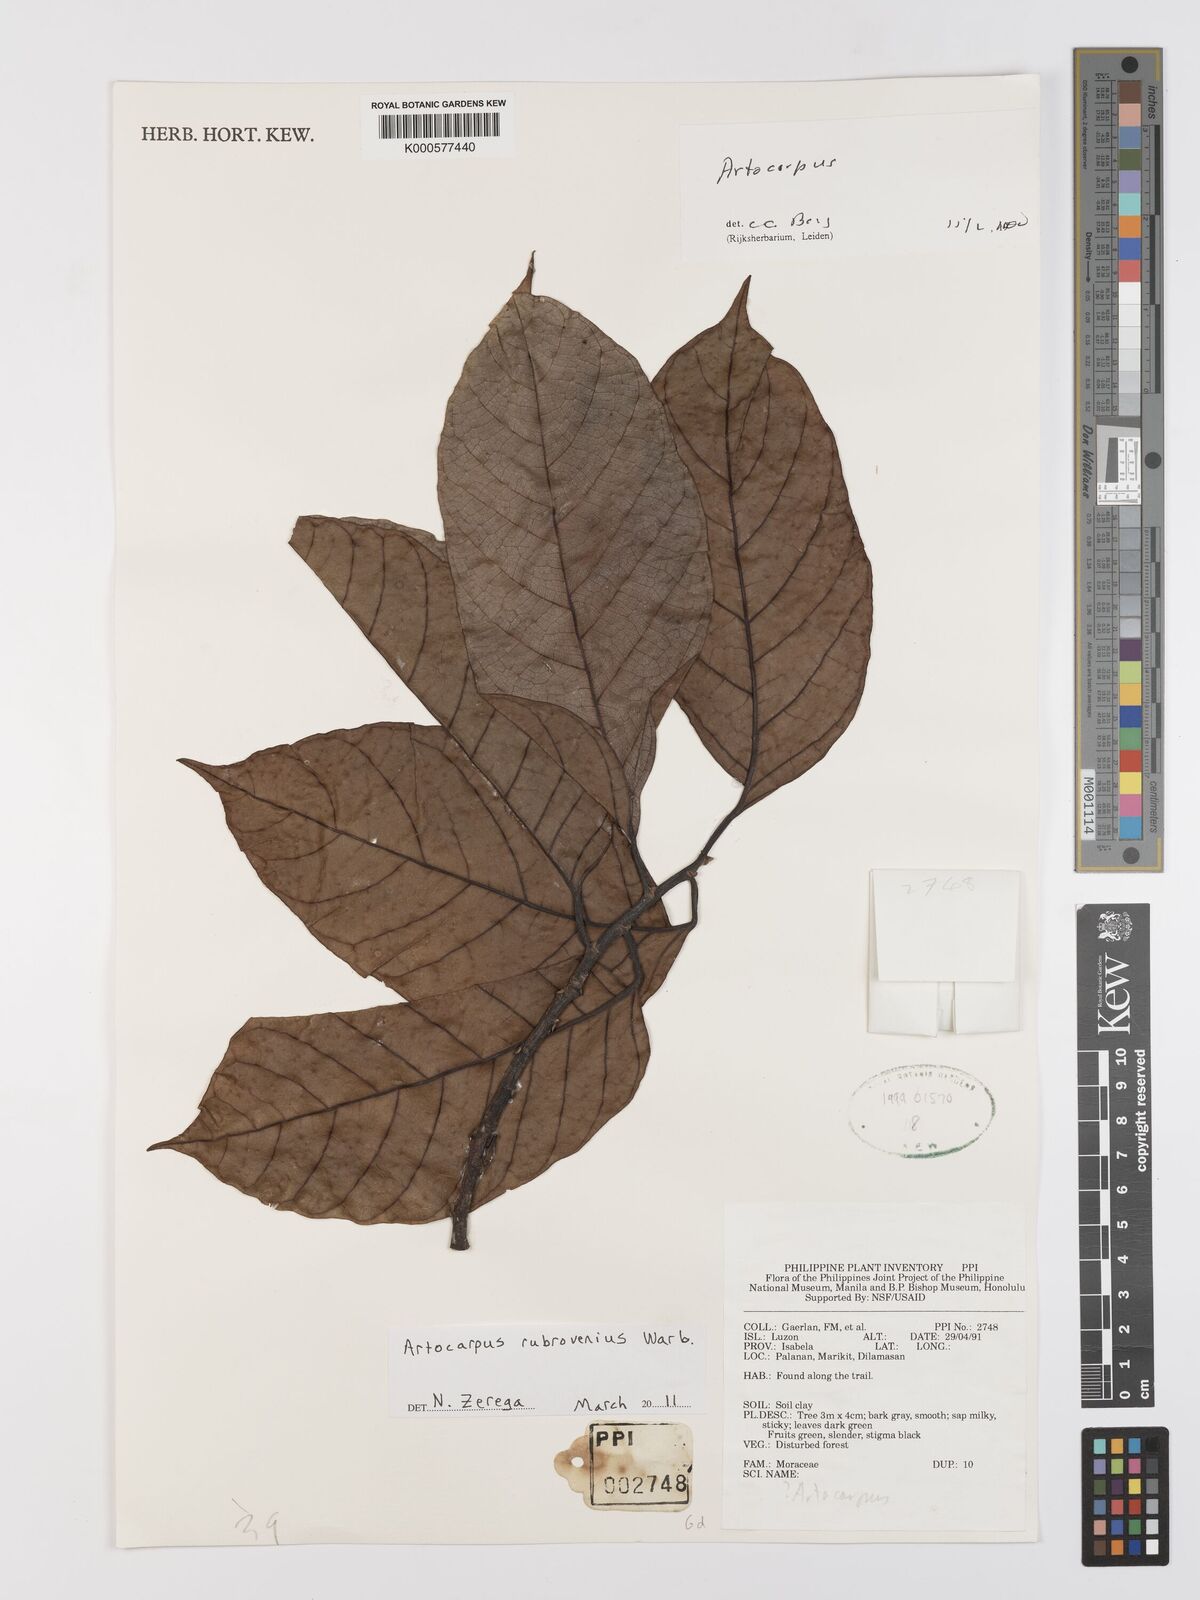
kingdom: Plantae
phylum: Tracheophyta
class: Magnoliopsida
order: Rosales
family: Moraceae
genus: Artocarpus
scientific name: Artocarpus rubrovenius
